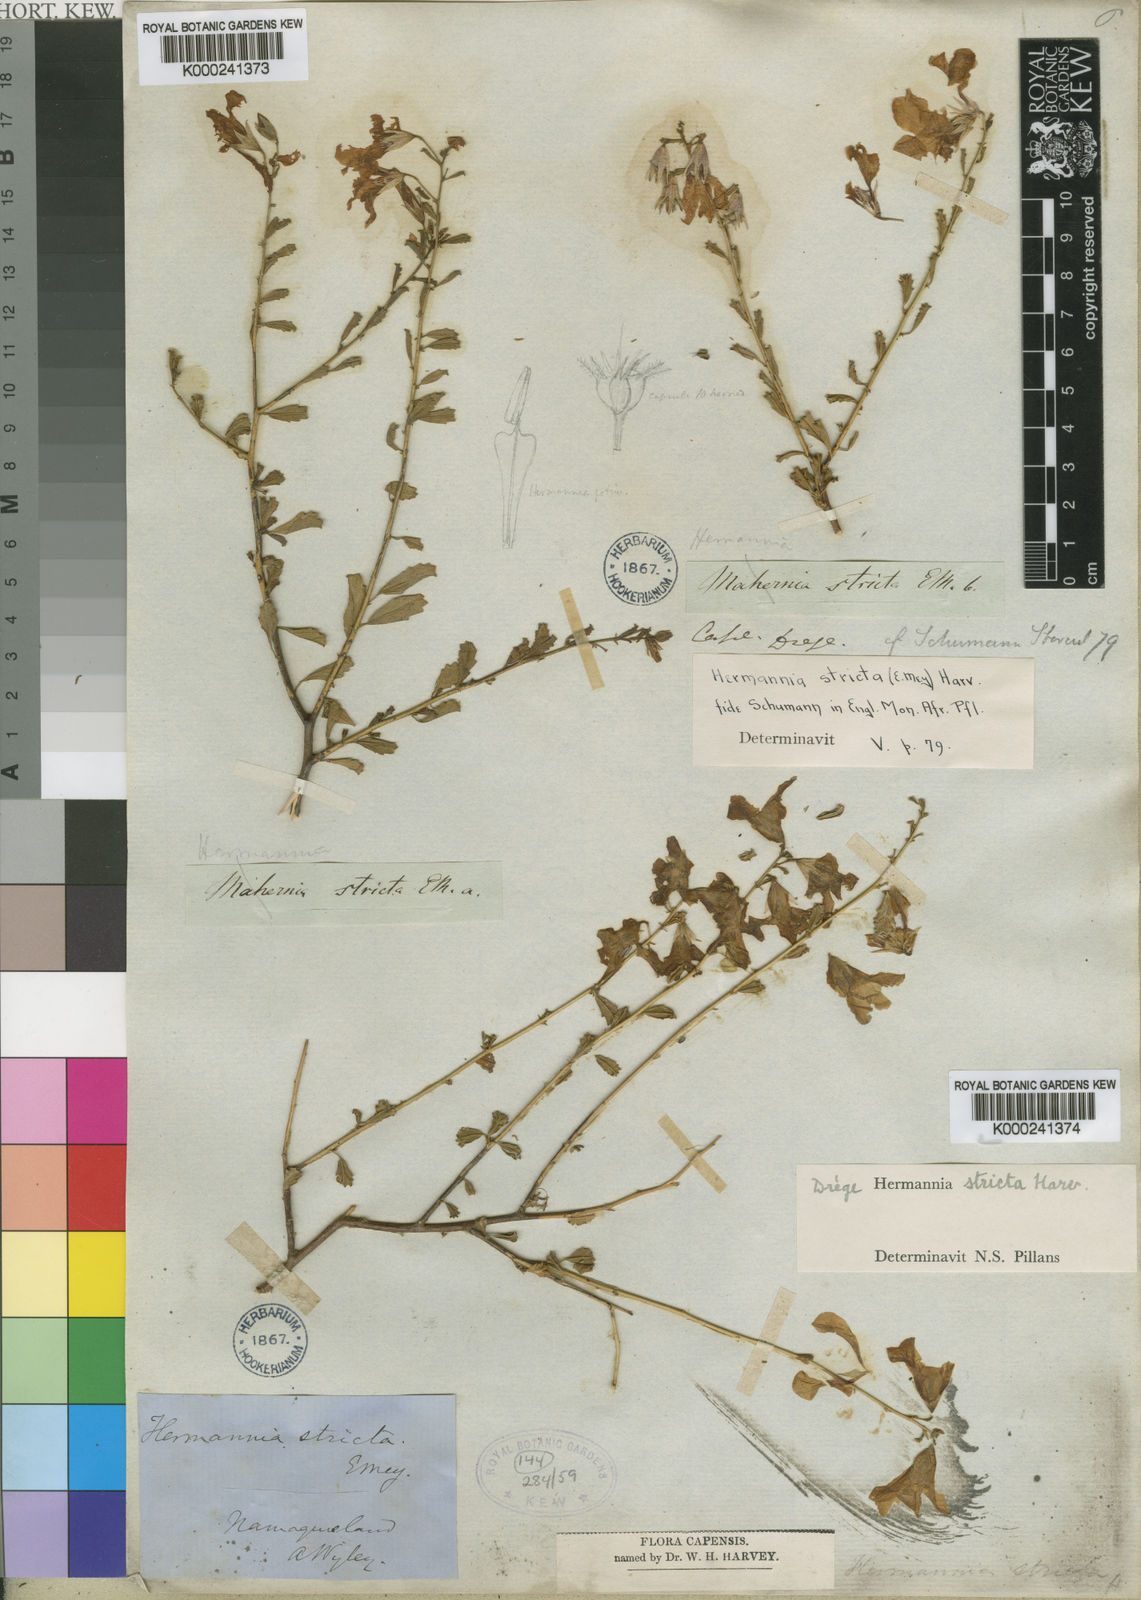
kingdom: Plantae
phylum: Tracheophyta
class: Magnoliopsida
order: Malvales
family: Malvaceae
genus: Hermannia
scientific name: Hermannia stricta
